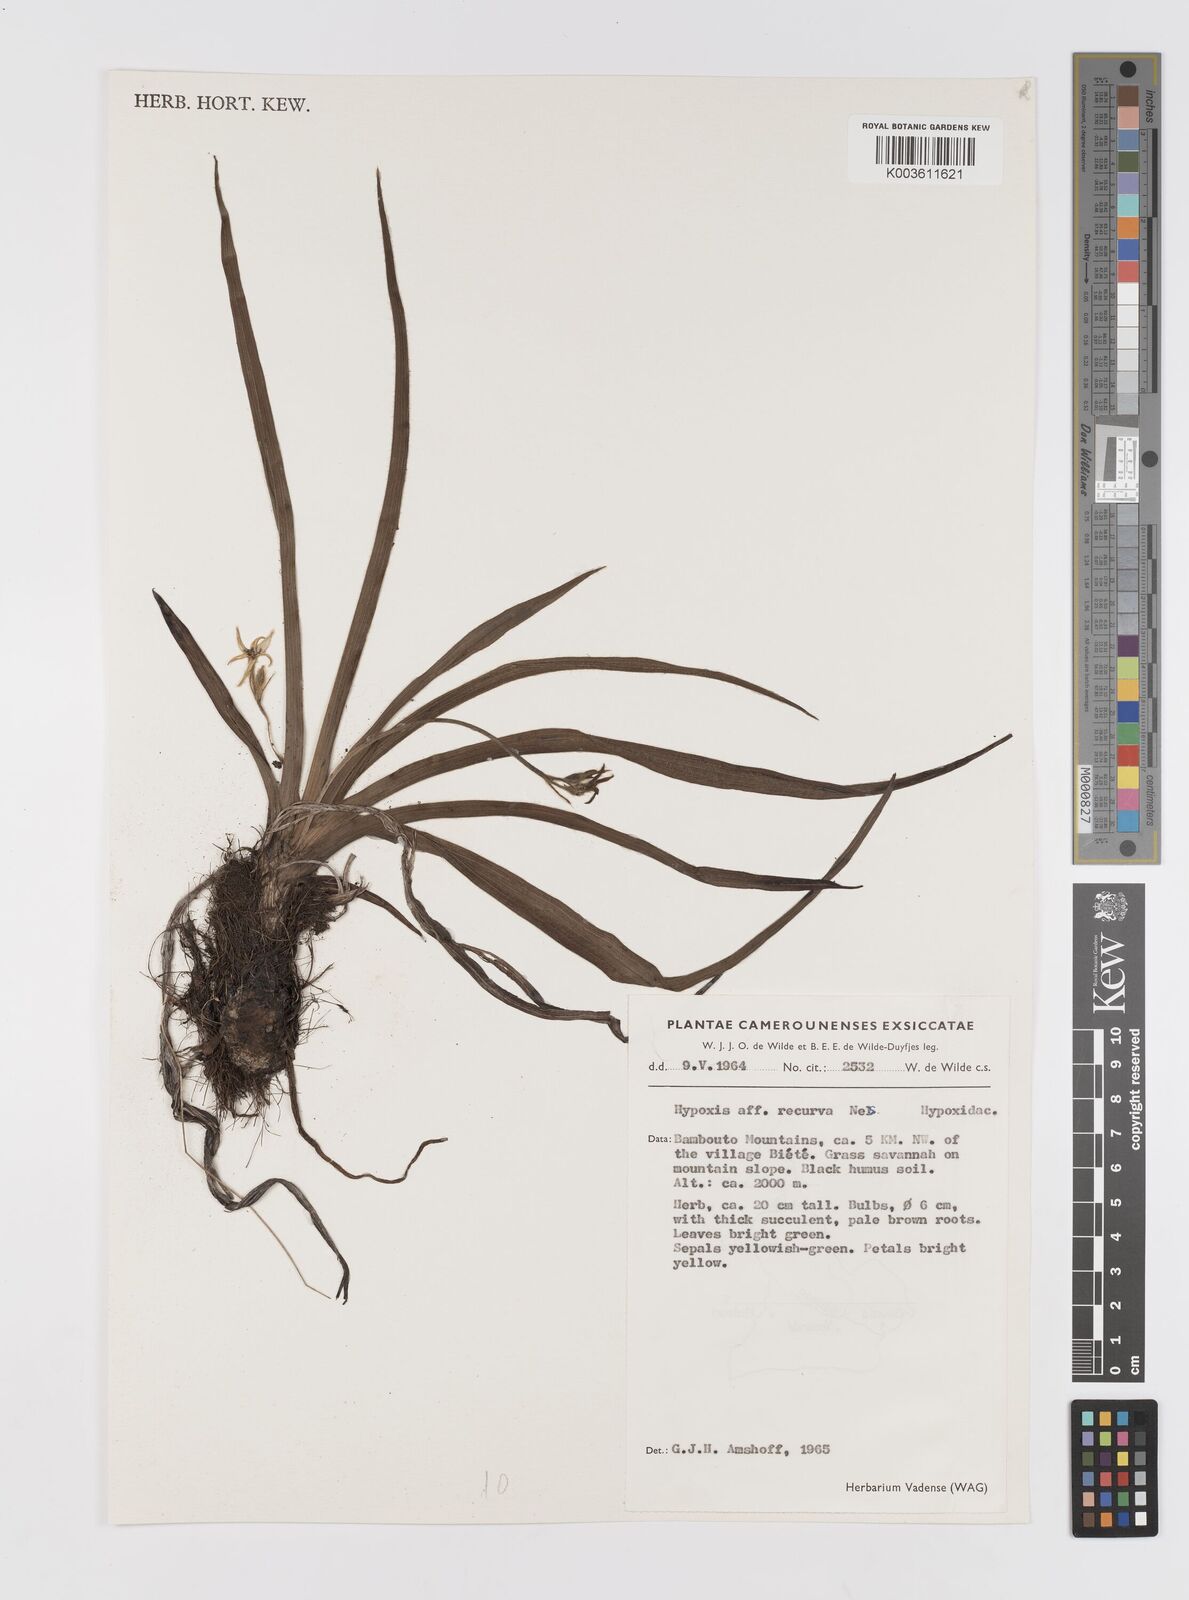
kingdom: Plantae
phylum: Tracheophyta
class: Liliopsida
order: Asparagales
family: Hypoxidaceae
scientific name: Hypoxidaceae
